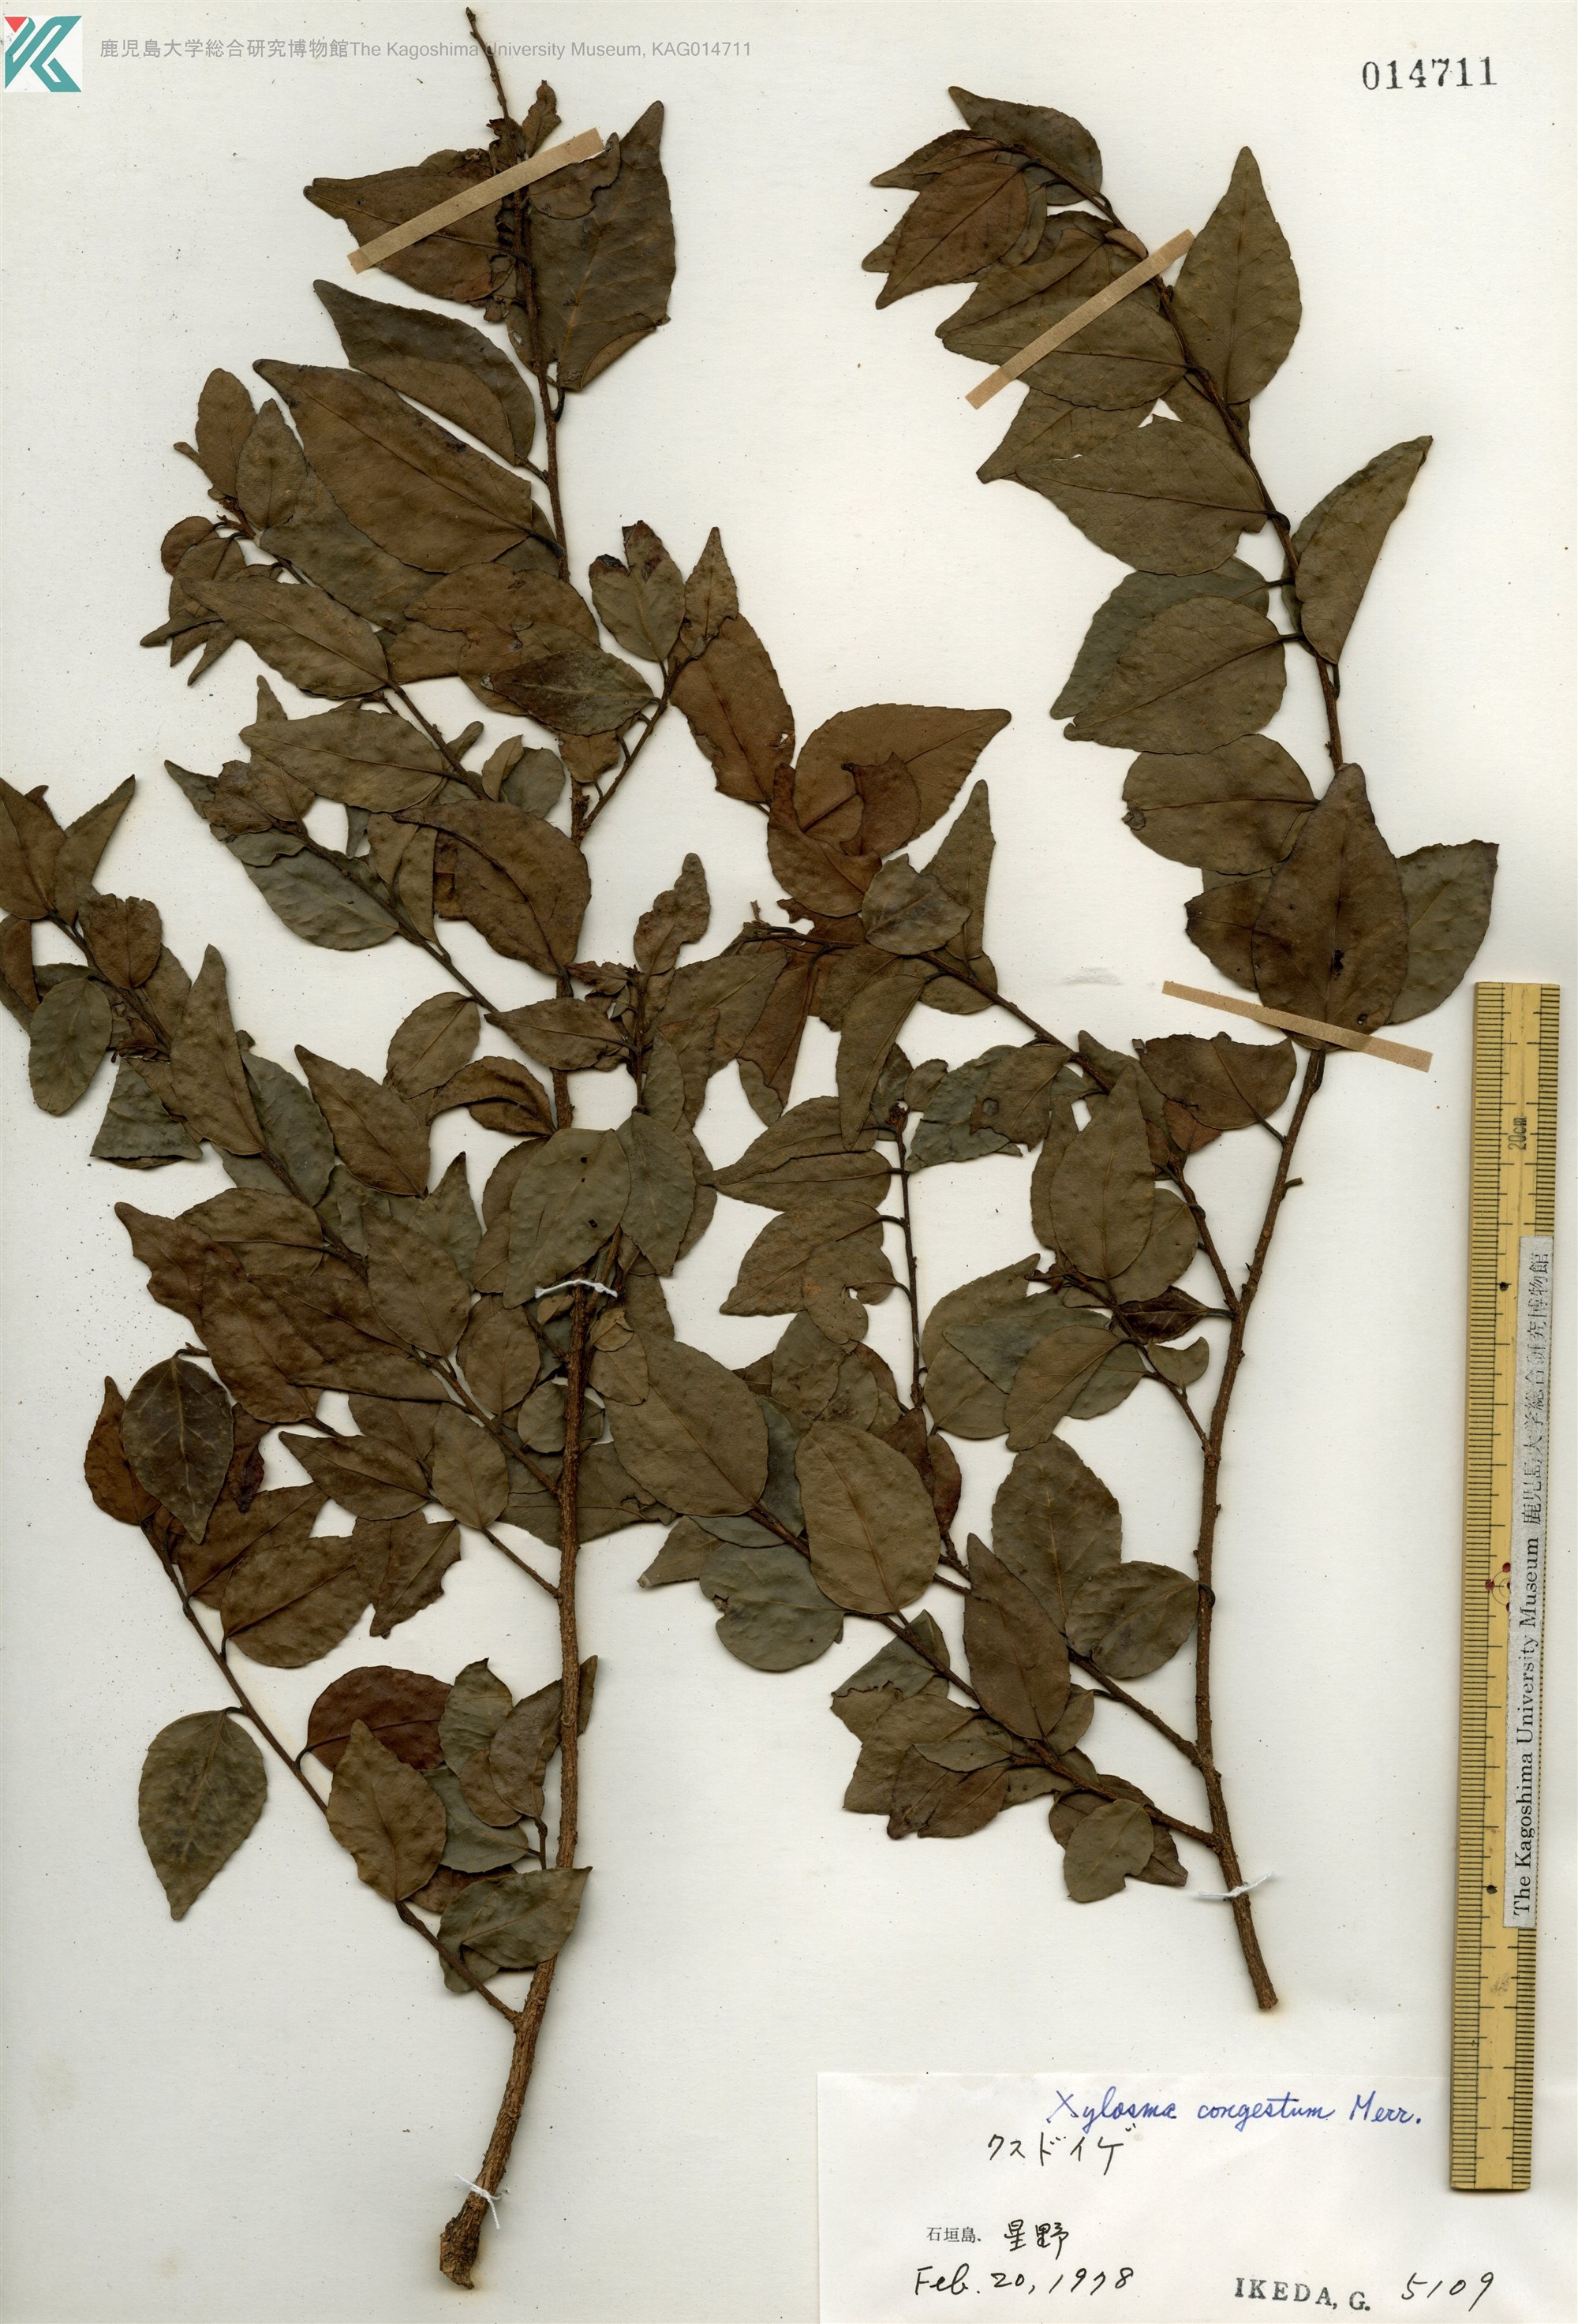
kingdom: Plantae
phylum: Tracheophyta
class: Magnoliopsida
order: Malpighiales
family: Salicaceae
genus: Xylosma
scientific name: Xylosma racemosum
